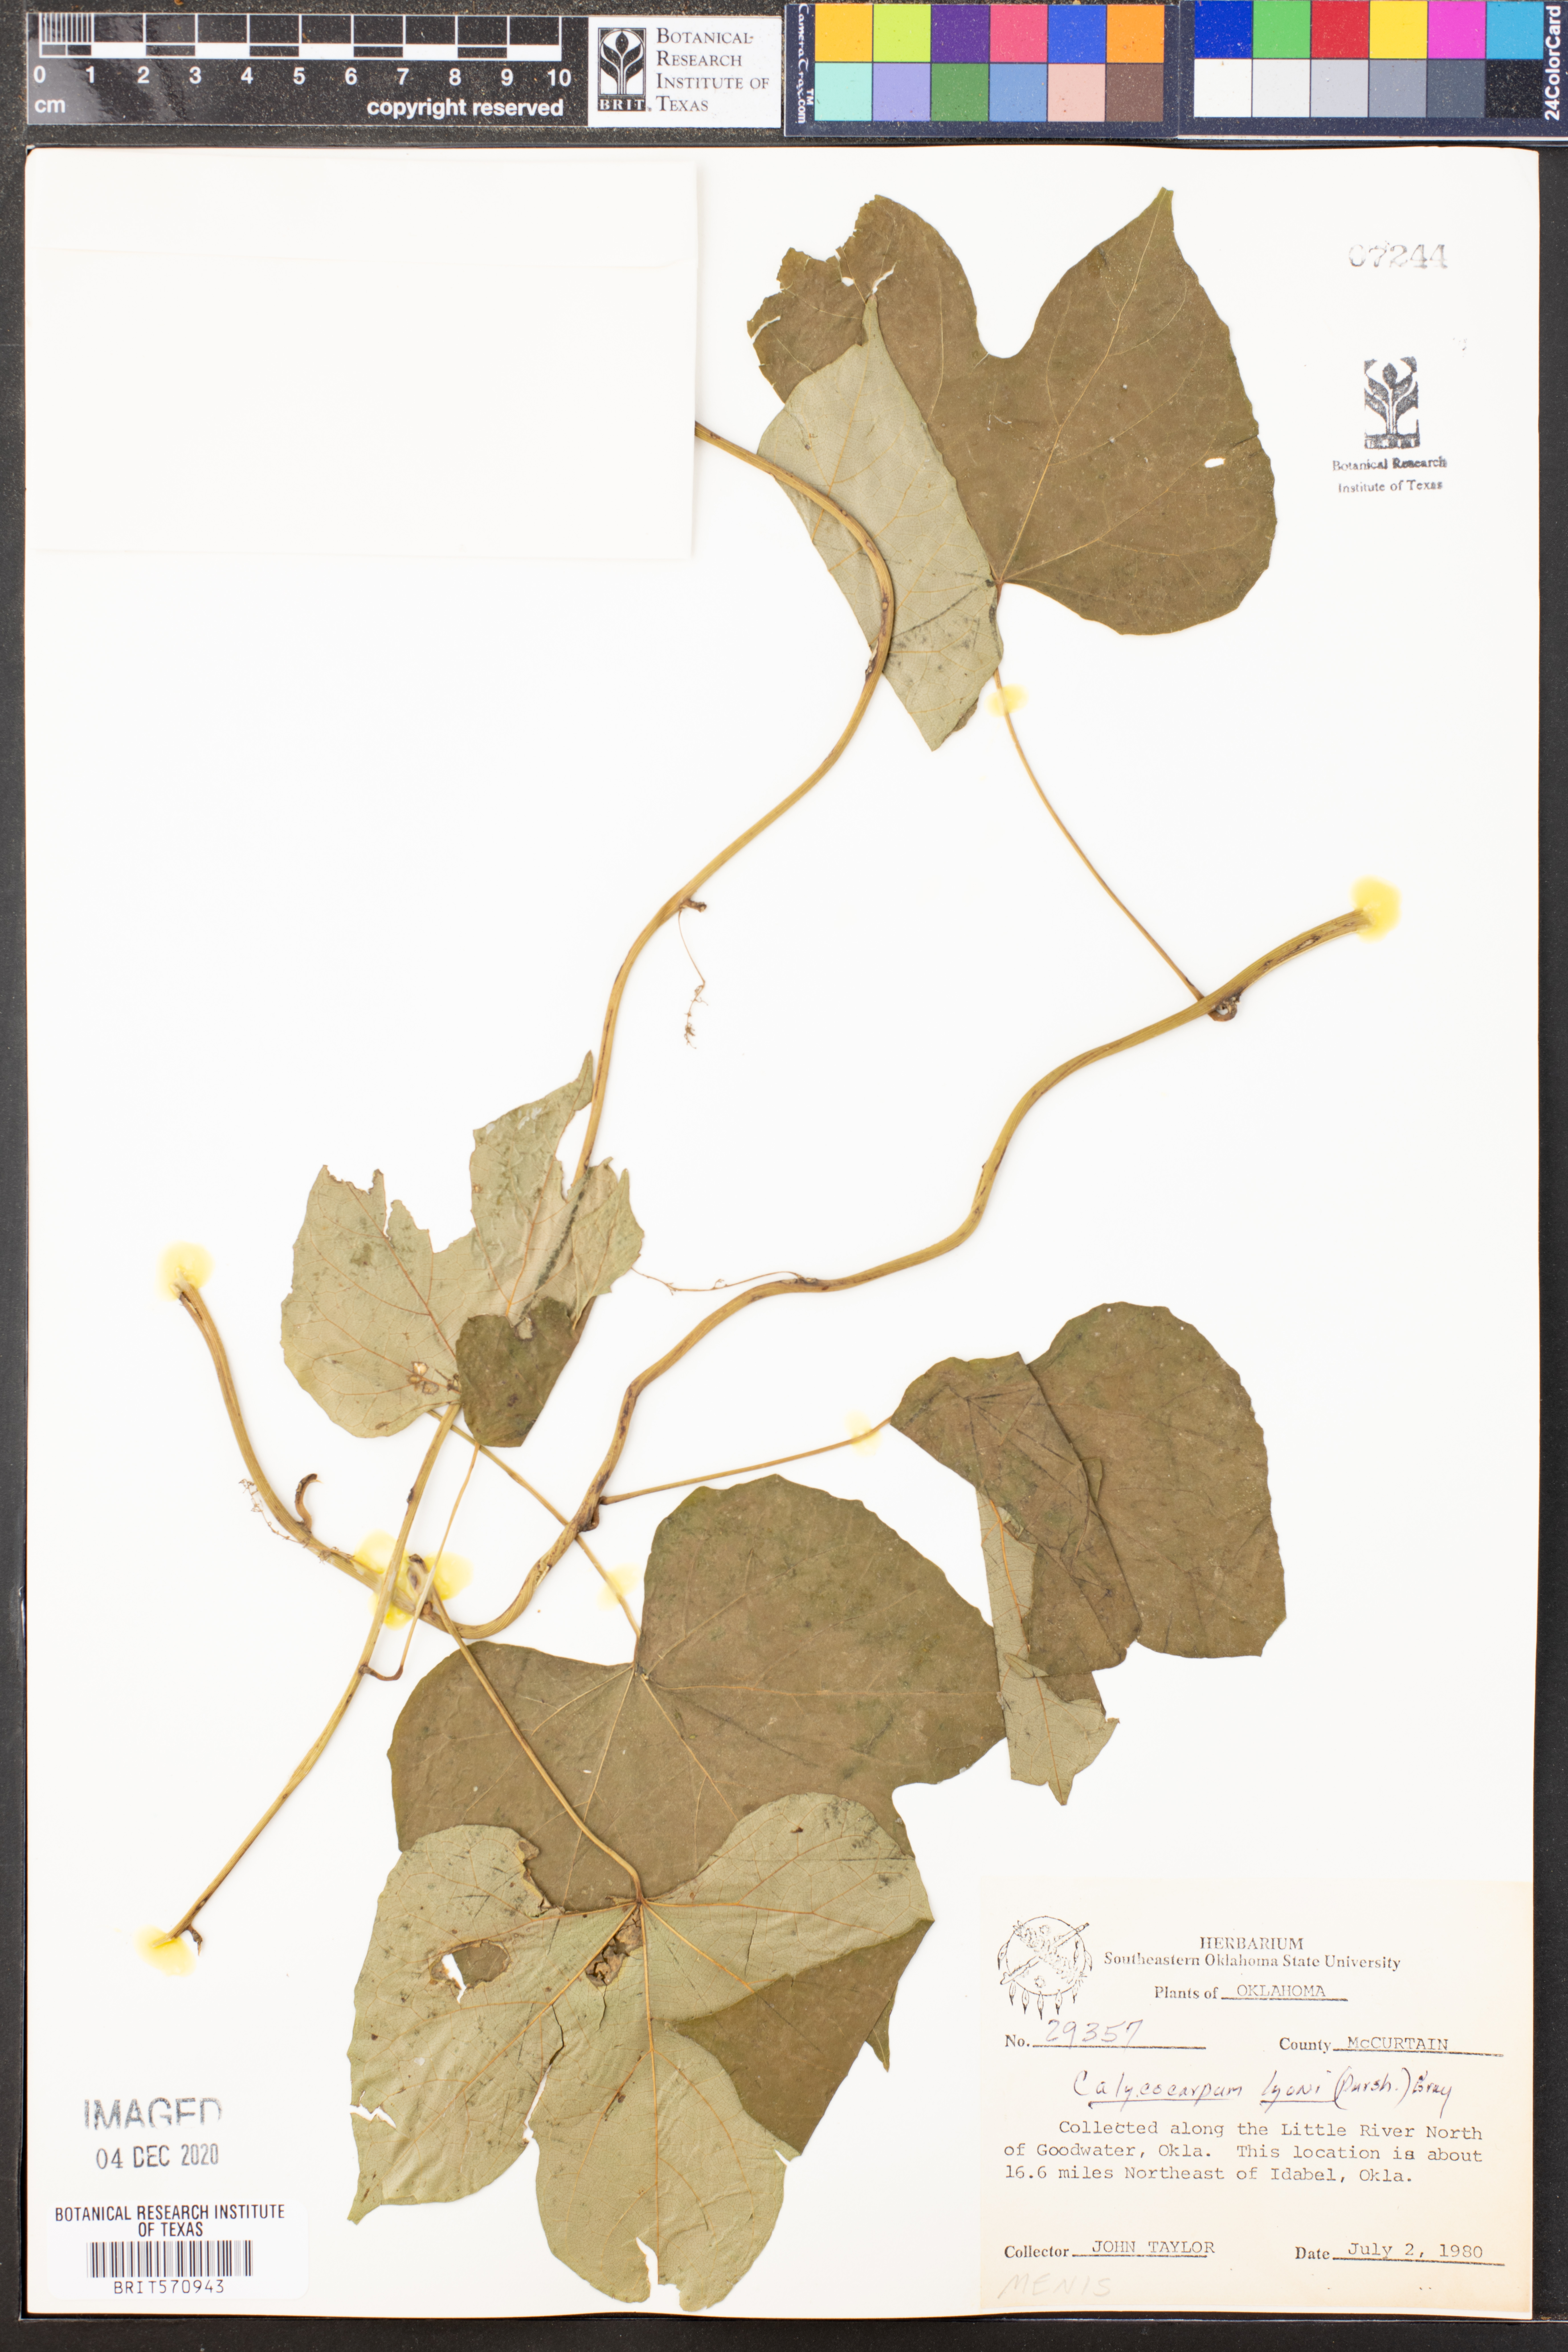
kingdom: Plantae
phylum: Tracheophyta
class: Magnoliopsida
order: Ranunculales
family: Menispermaceae
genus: Calycocarpum
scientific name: Calycocarpum lyonii
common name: Cupseed
